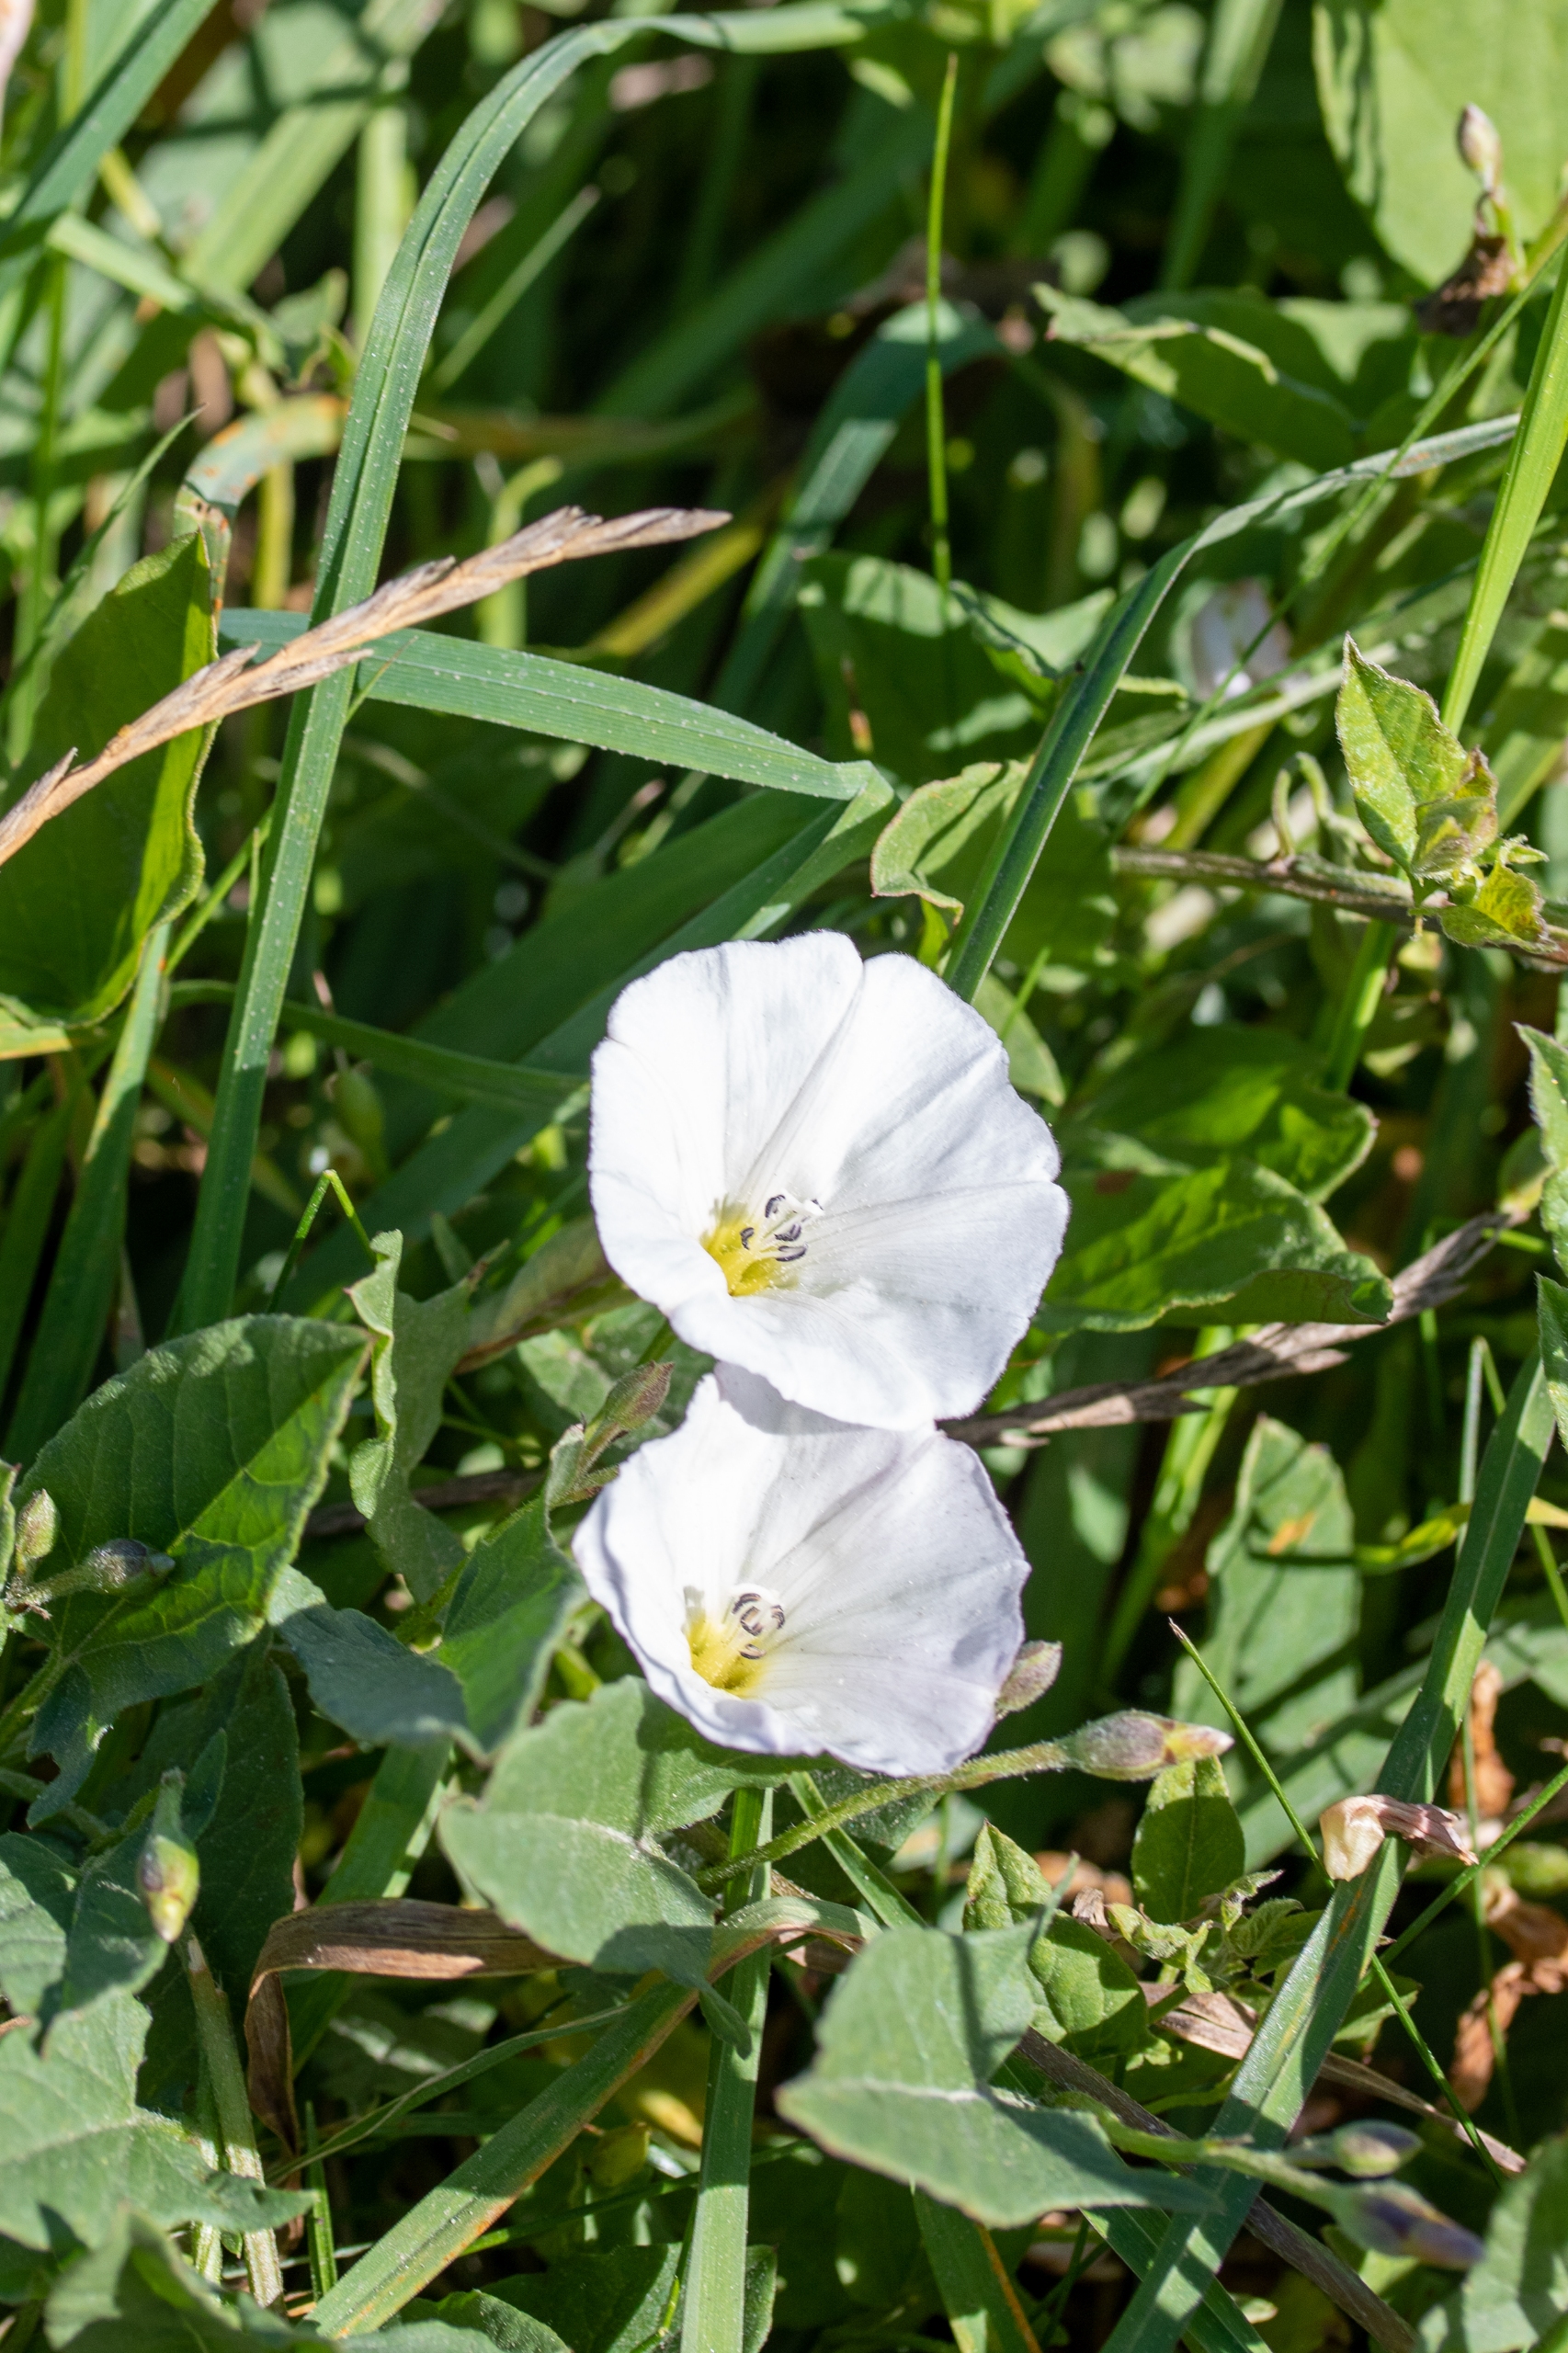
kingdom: Plantae
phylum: Tracheophyta
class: Magnoliopsida
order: Solanales
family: Convolvulaceae
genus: Convolvulus
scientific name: Convolvulus arvensis
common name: Ager-snerle
